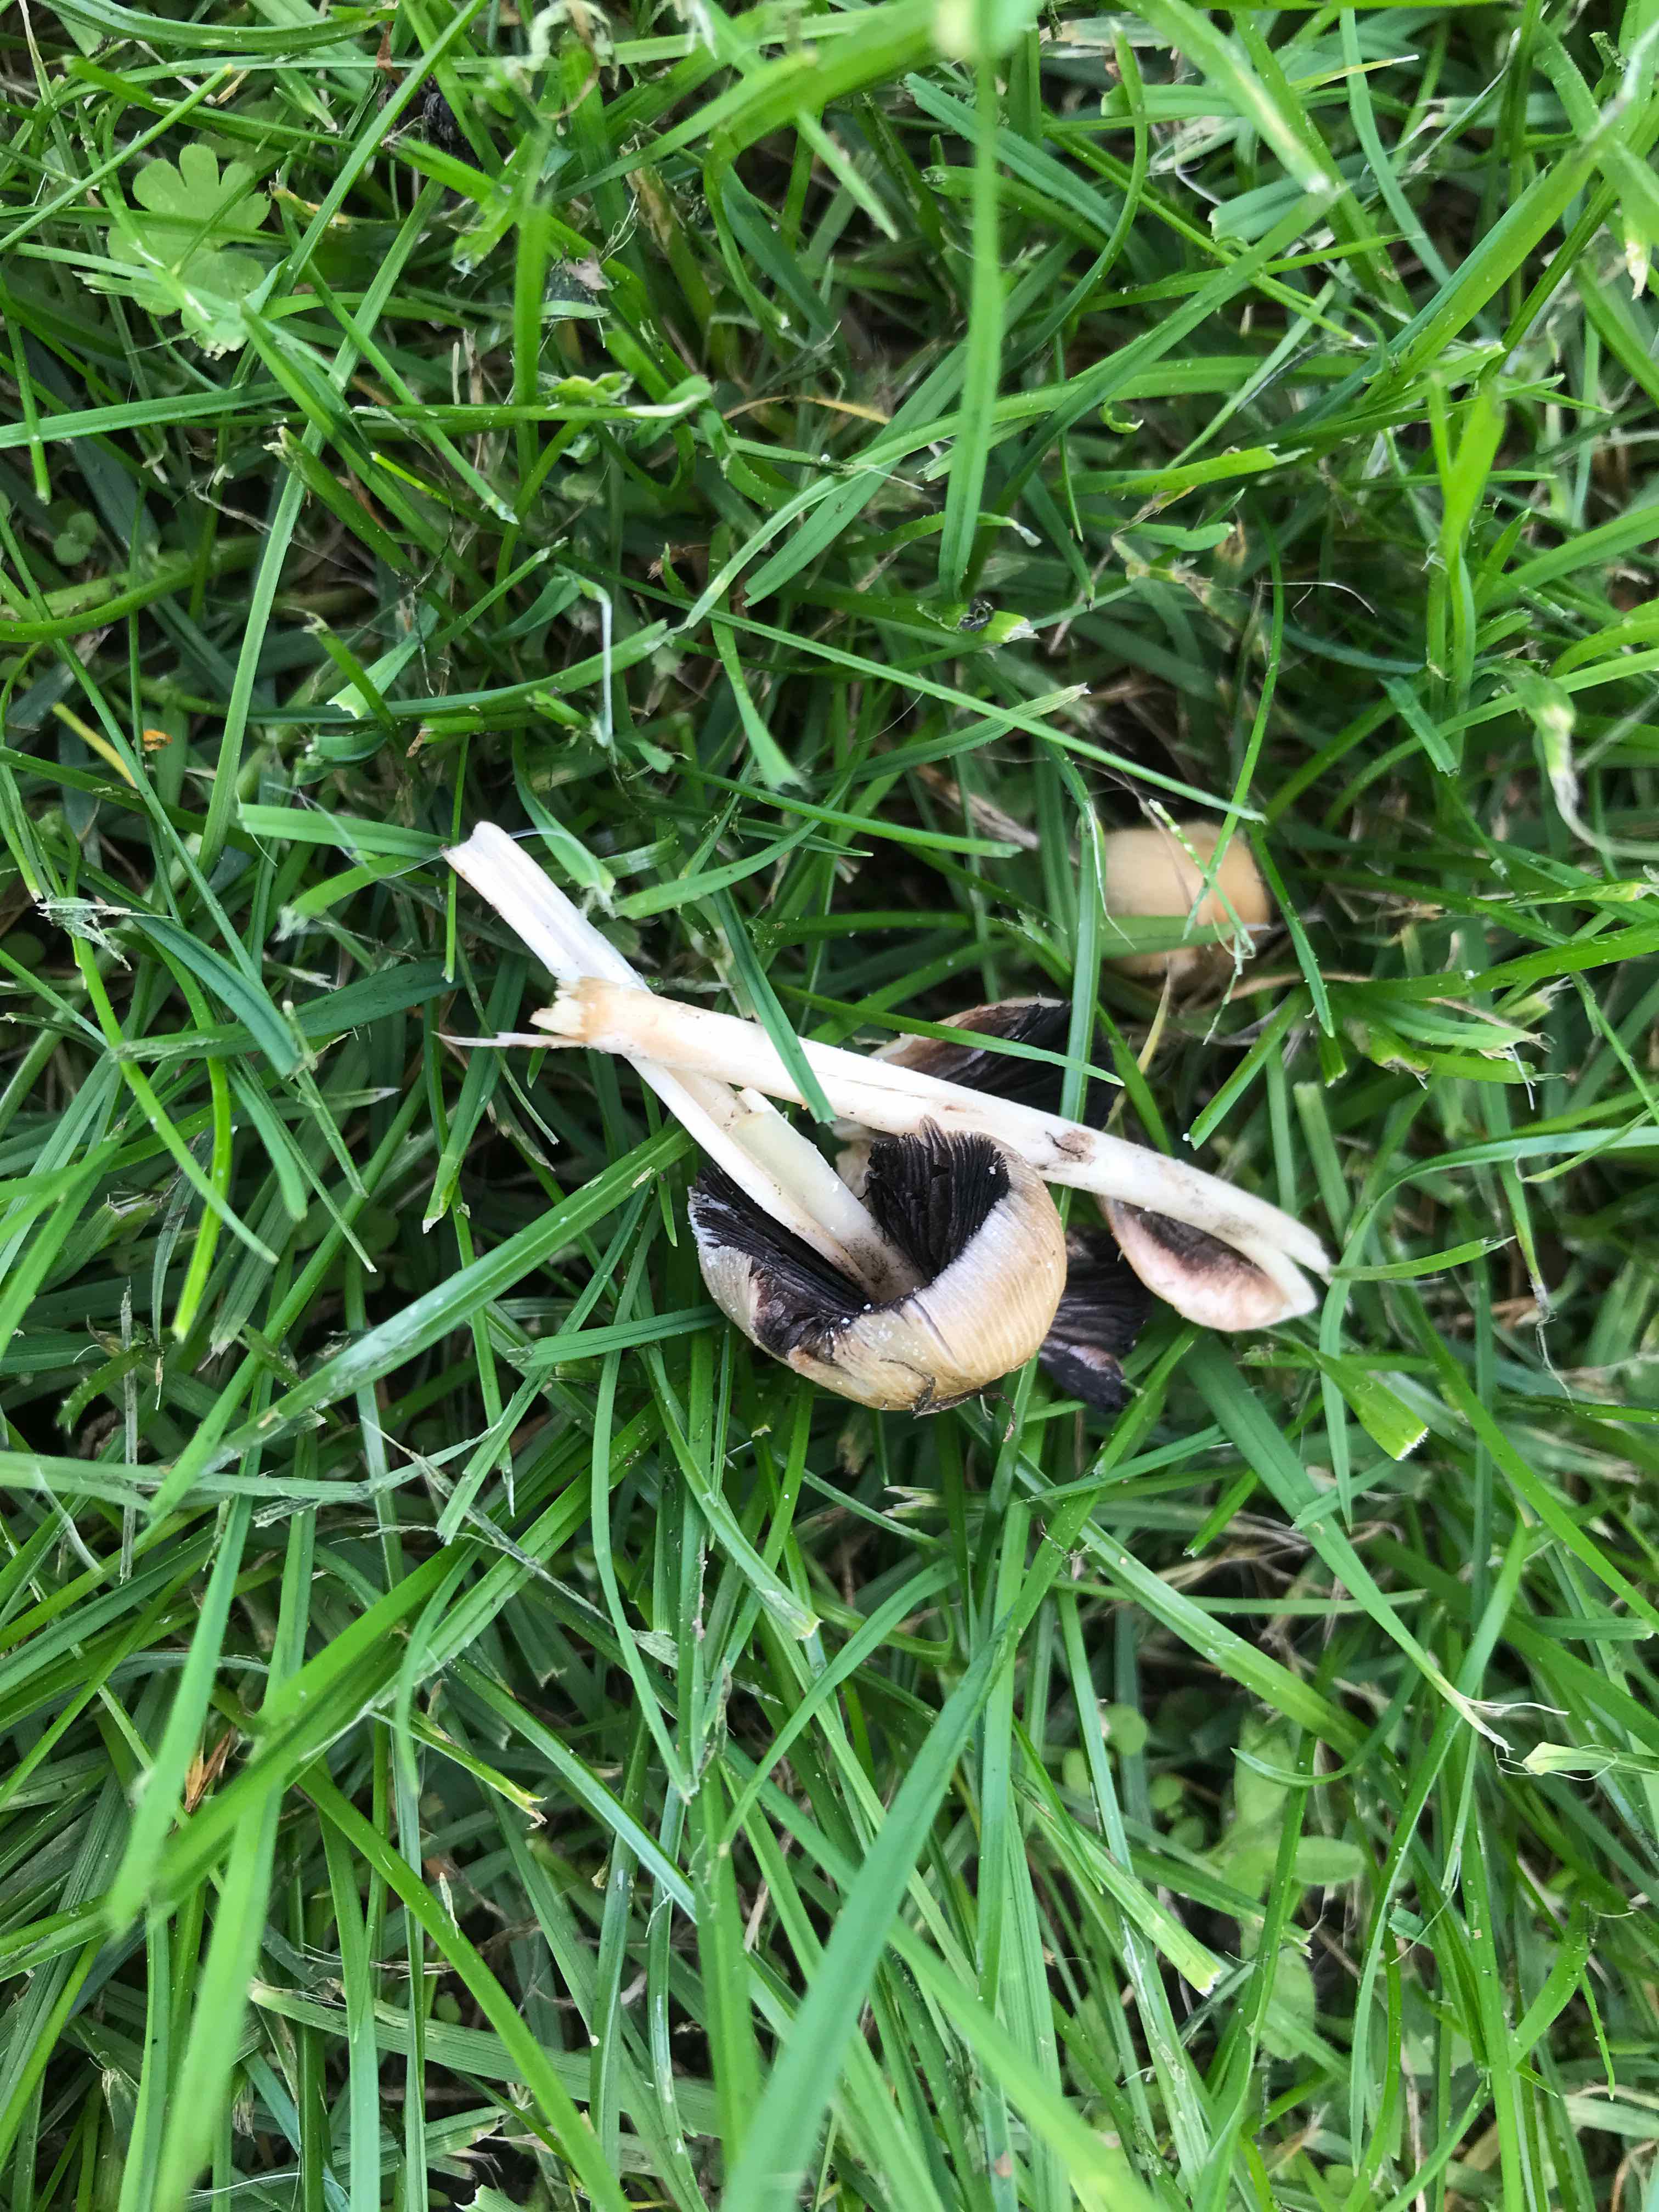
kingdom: Fungi
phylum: Basidiomycota
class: Agaricomycetes
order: Agaricales
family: Psathyrellaceae
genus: Coprinellus
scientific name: Coprinellus micaceus
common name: glimmer-blækhat
